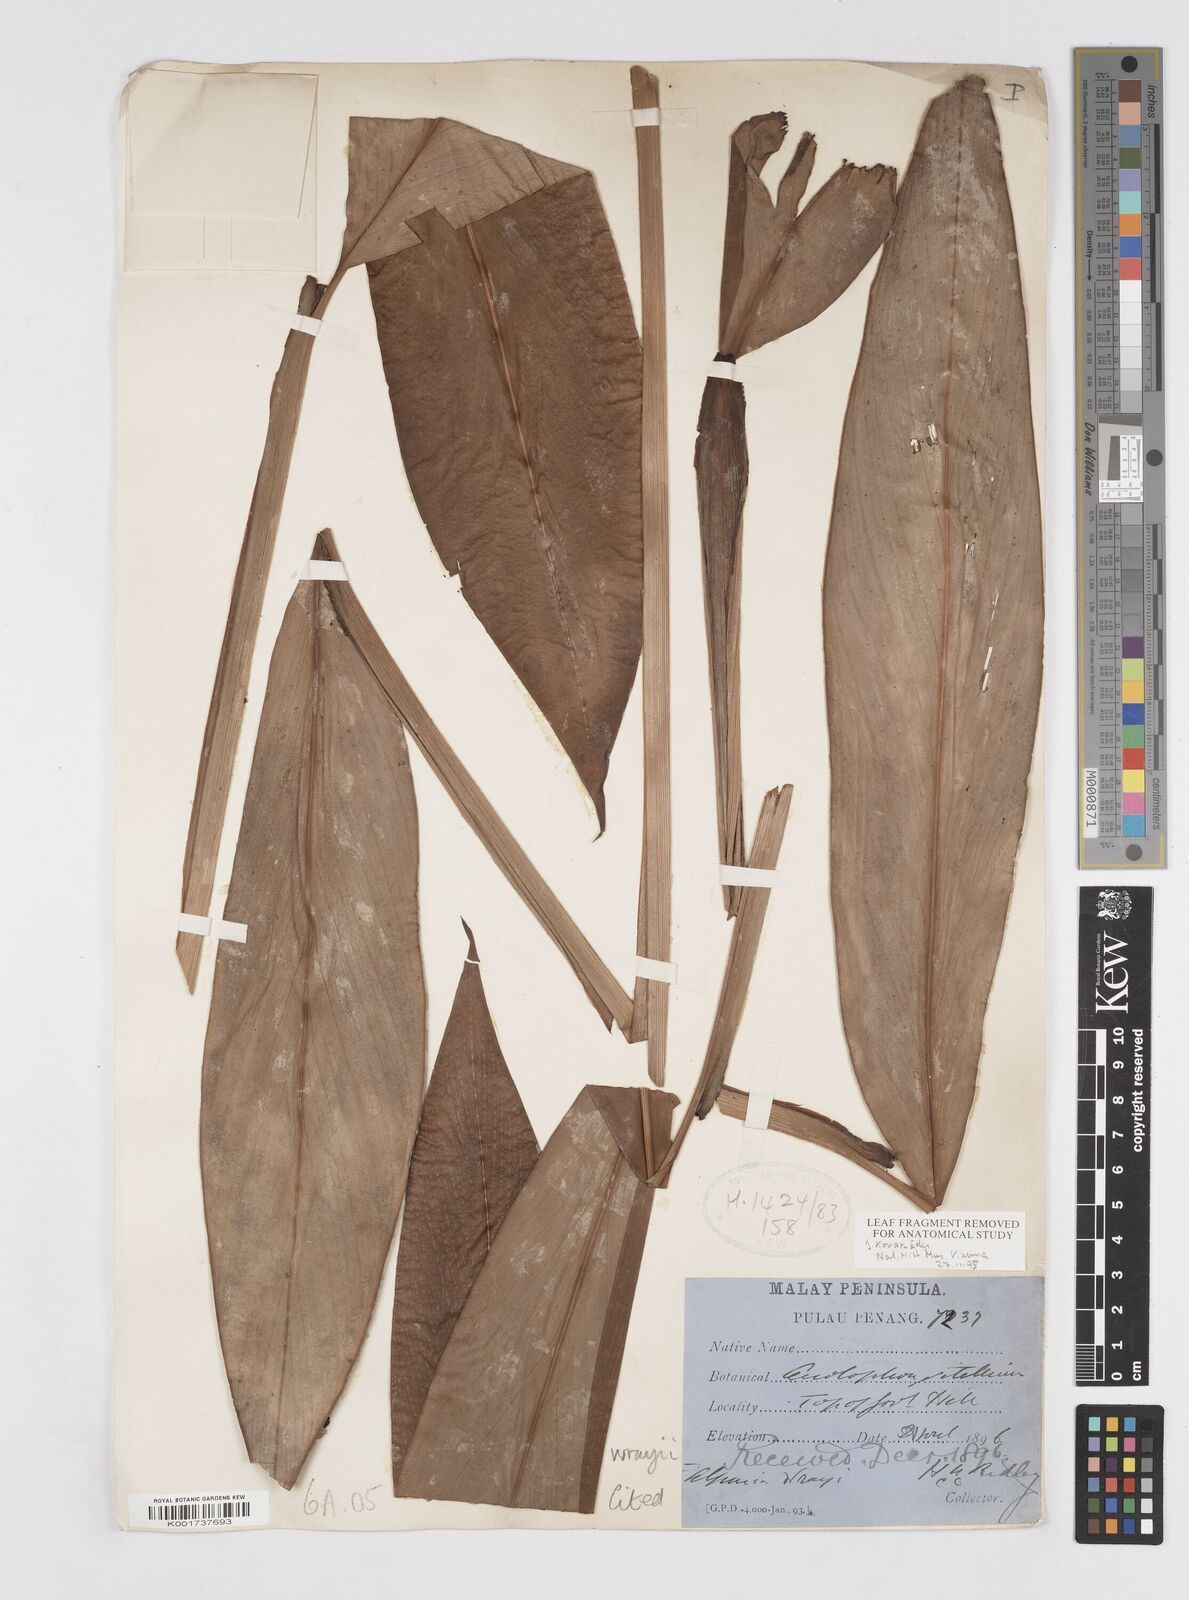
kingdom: Plantae
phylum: Tracheophyta
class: Liliopsida
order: Zingiberales
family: Zingiberaceae
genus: Alpinia
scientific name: Alpinia vitellina
